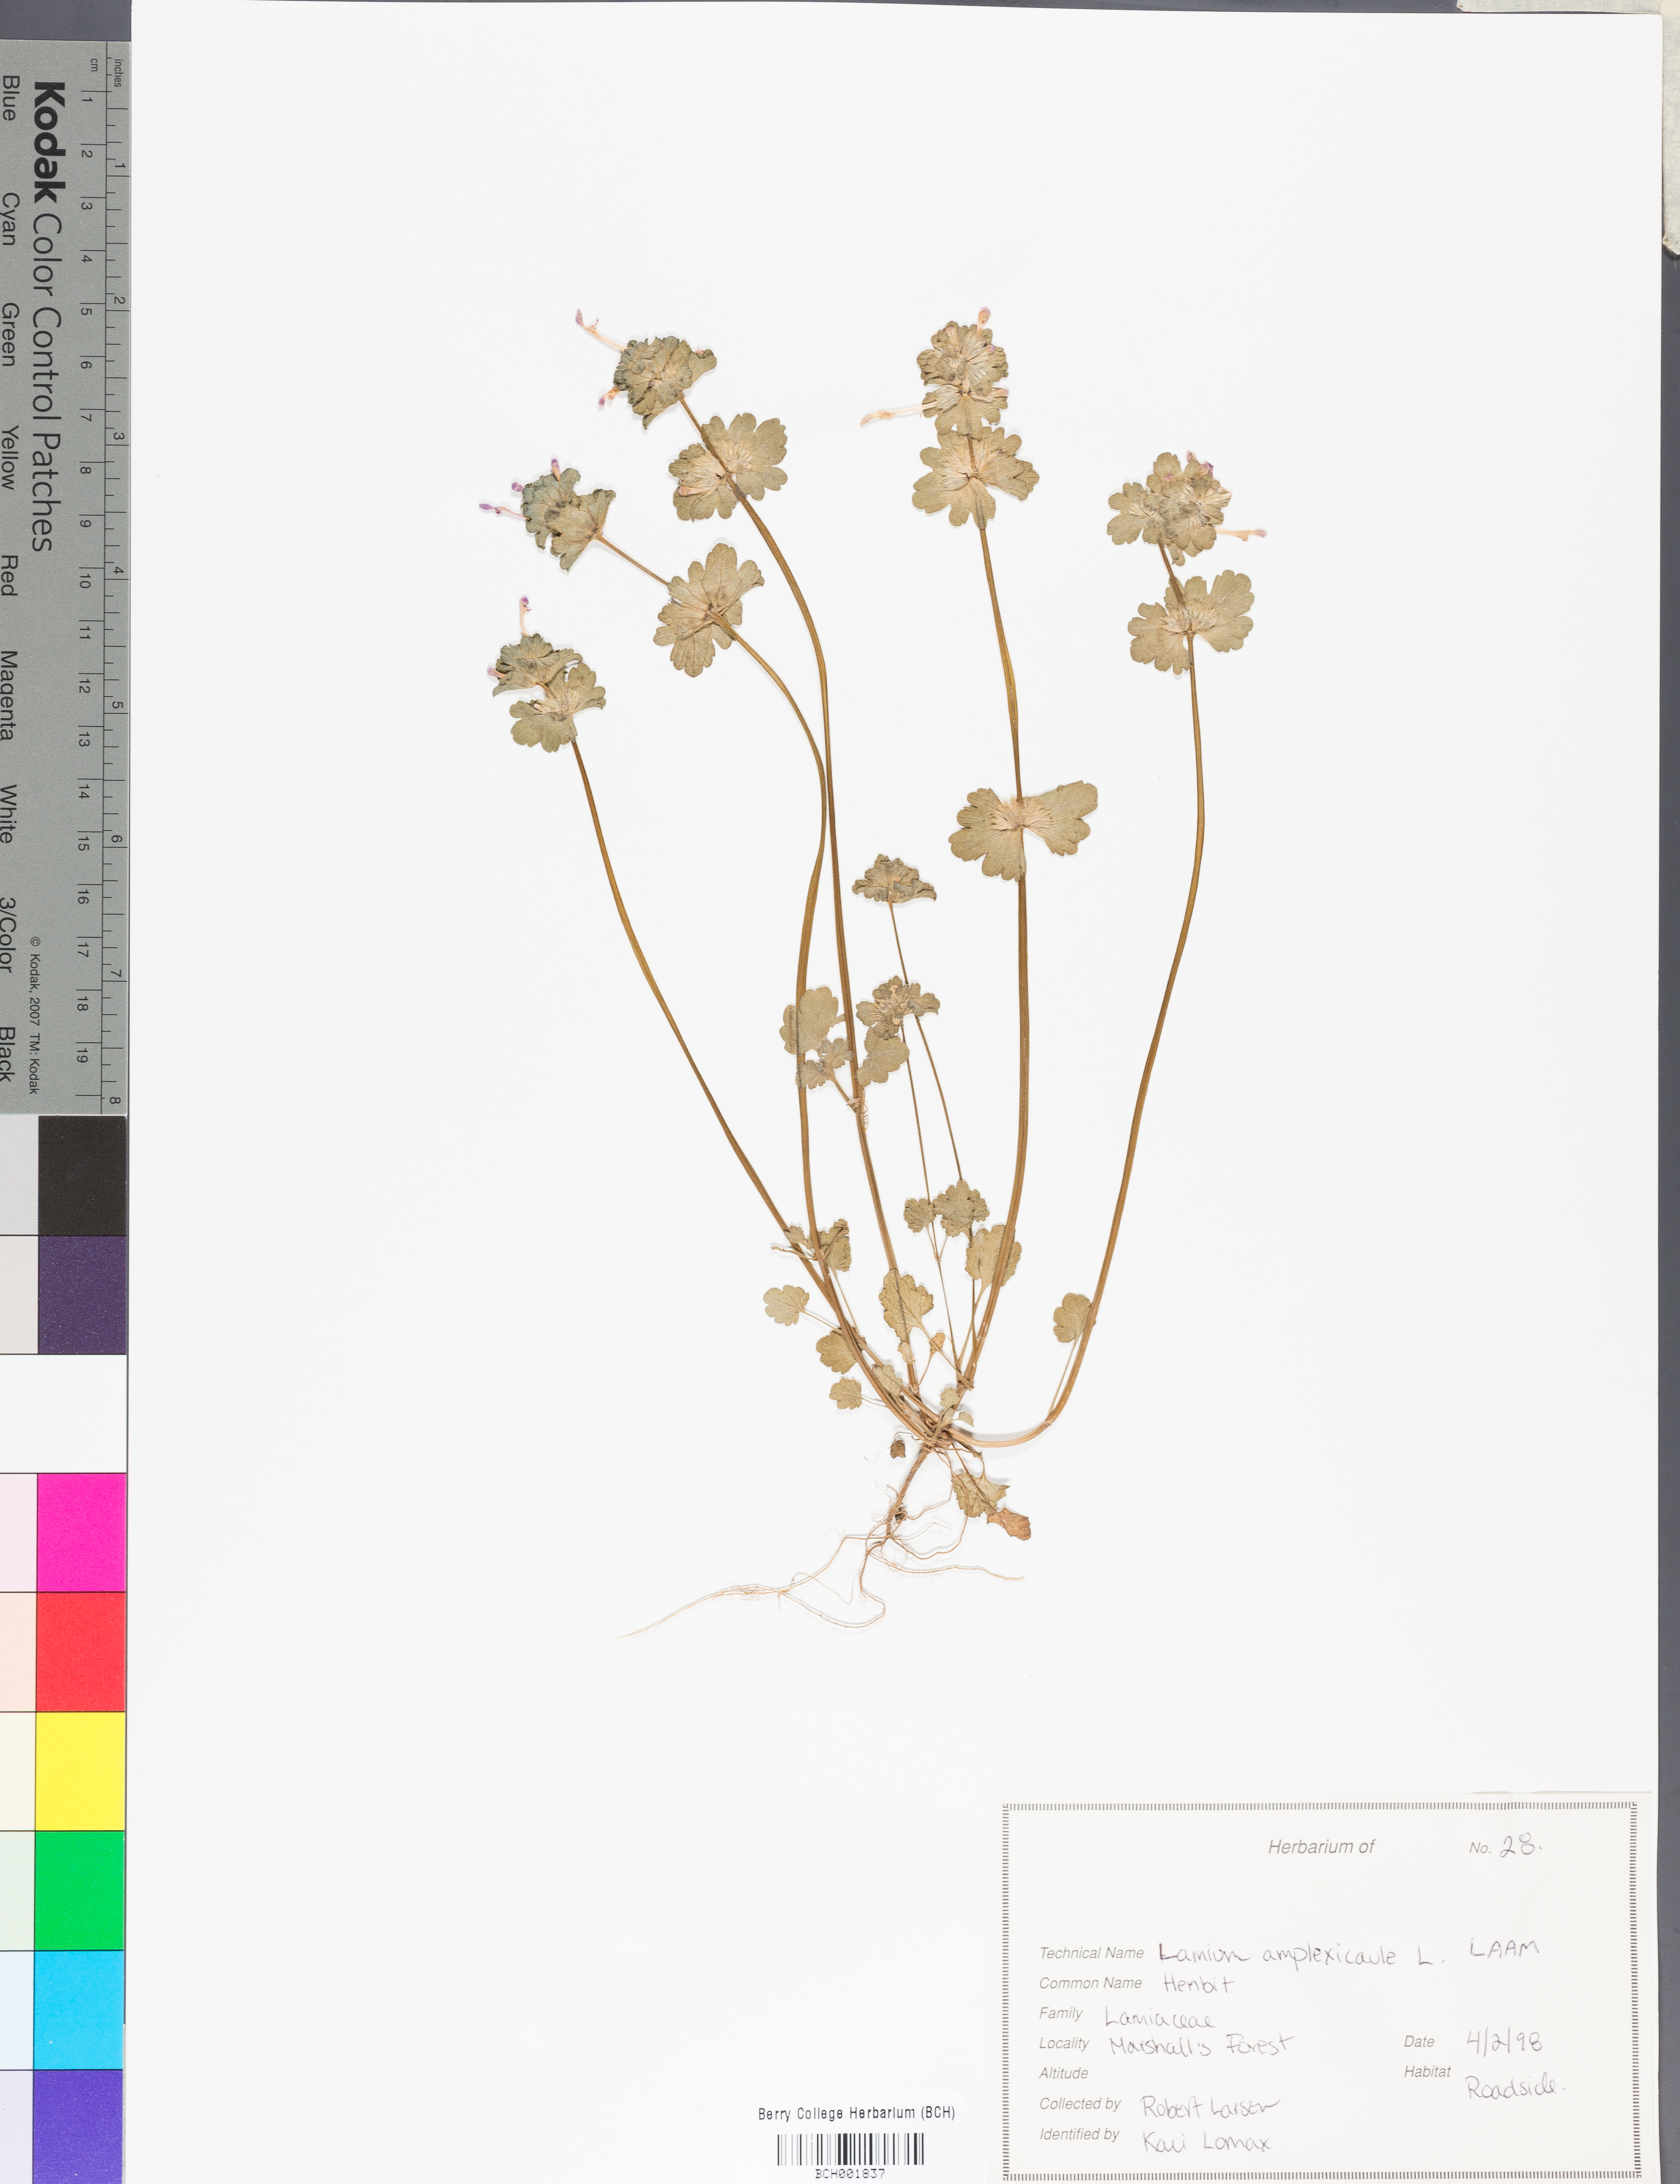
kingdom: Plantae
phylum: Tracheophyta
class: Magnoliopsida
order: Lamiales
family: Lamiaceae
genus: Lamium
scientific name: Lamium amplexicaule
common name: Henbit dead-nettle
